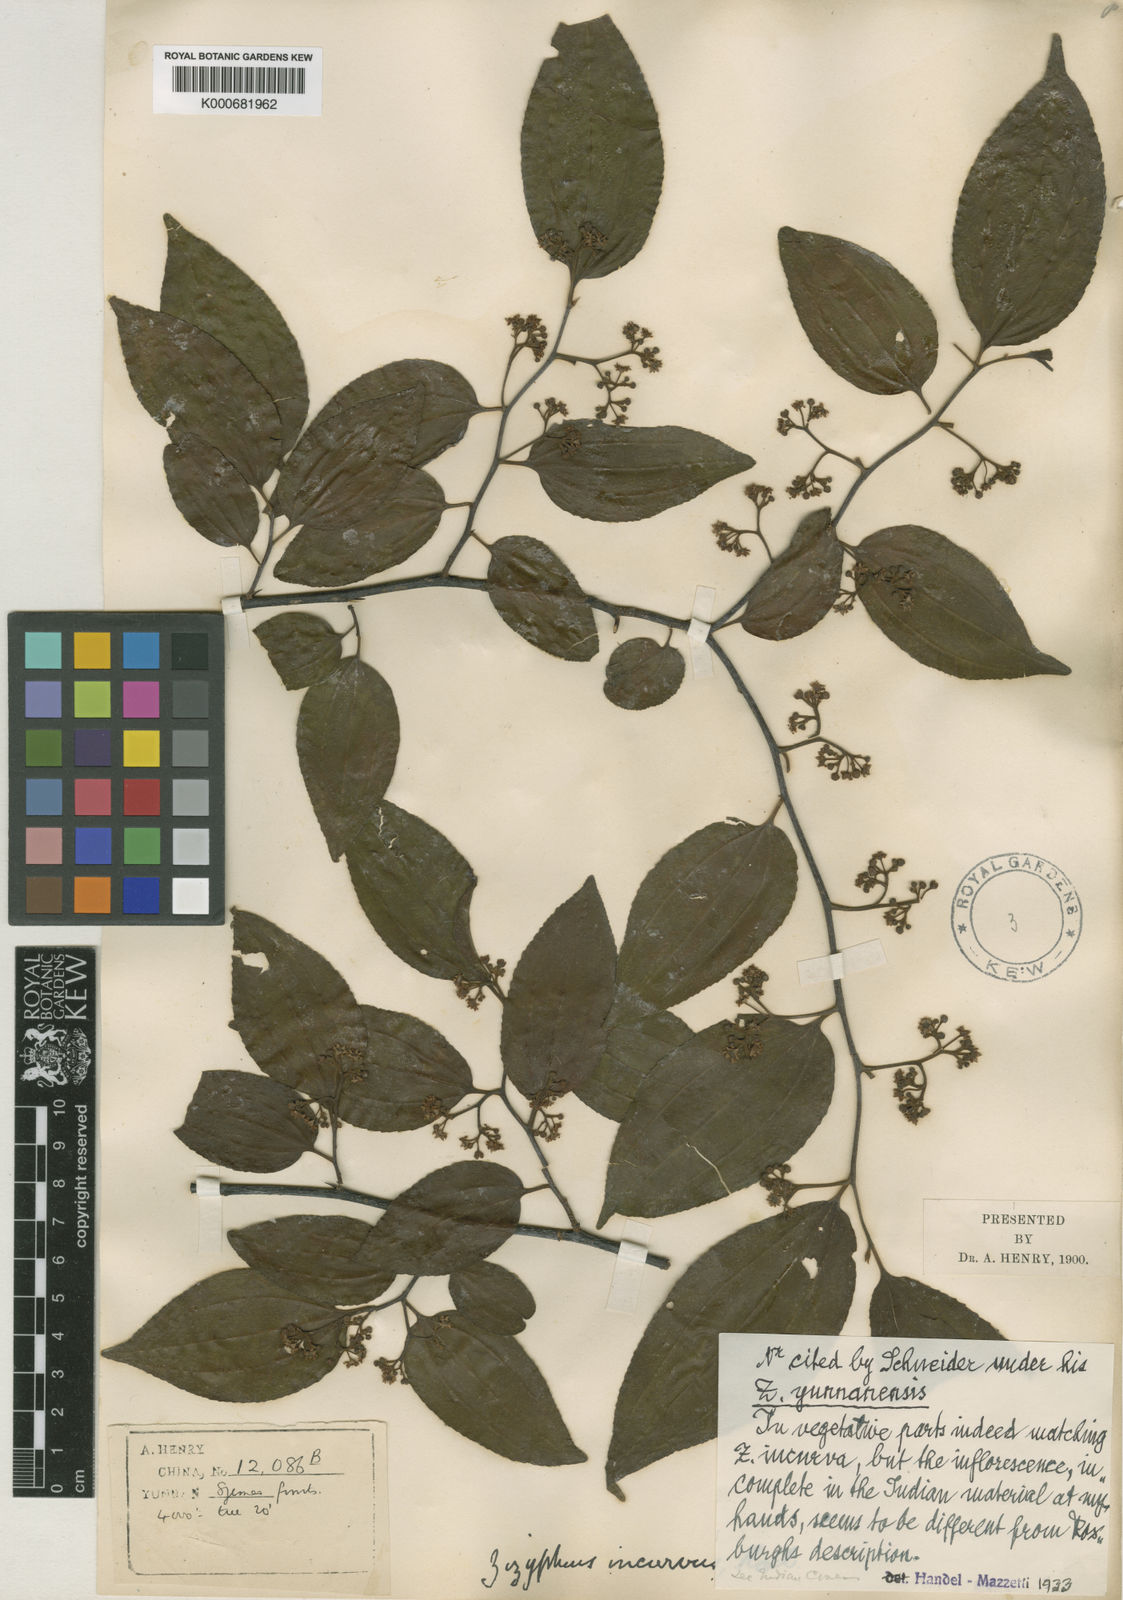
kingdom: Plantae
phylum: Tracheophyta
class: Magnoliopsida
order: Rosales
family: Rhamnaceae
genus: Ziziphus
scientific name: Ziziphus incurva
